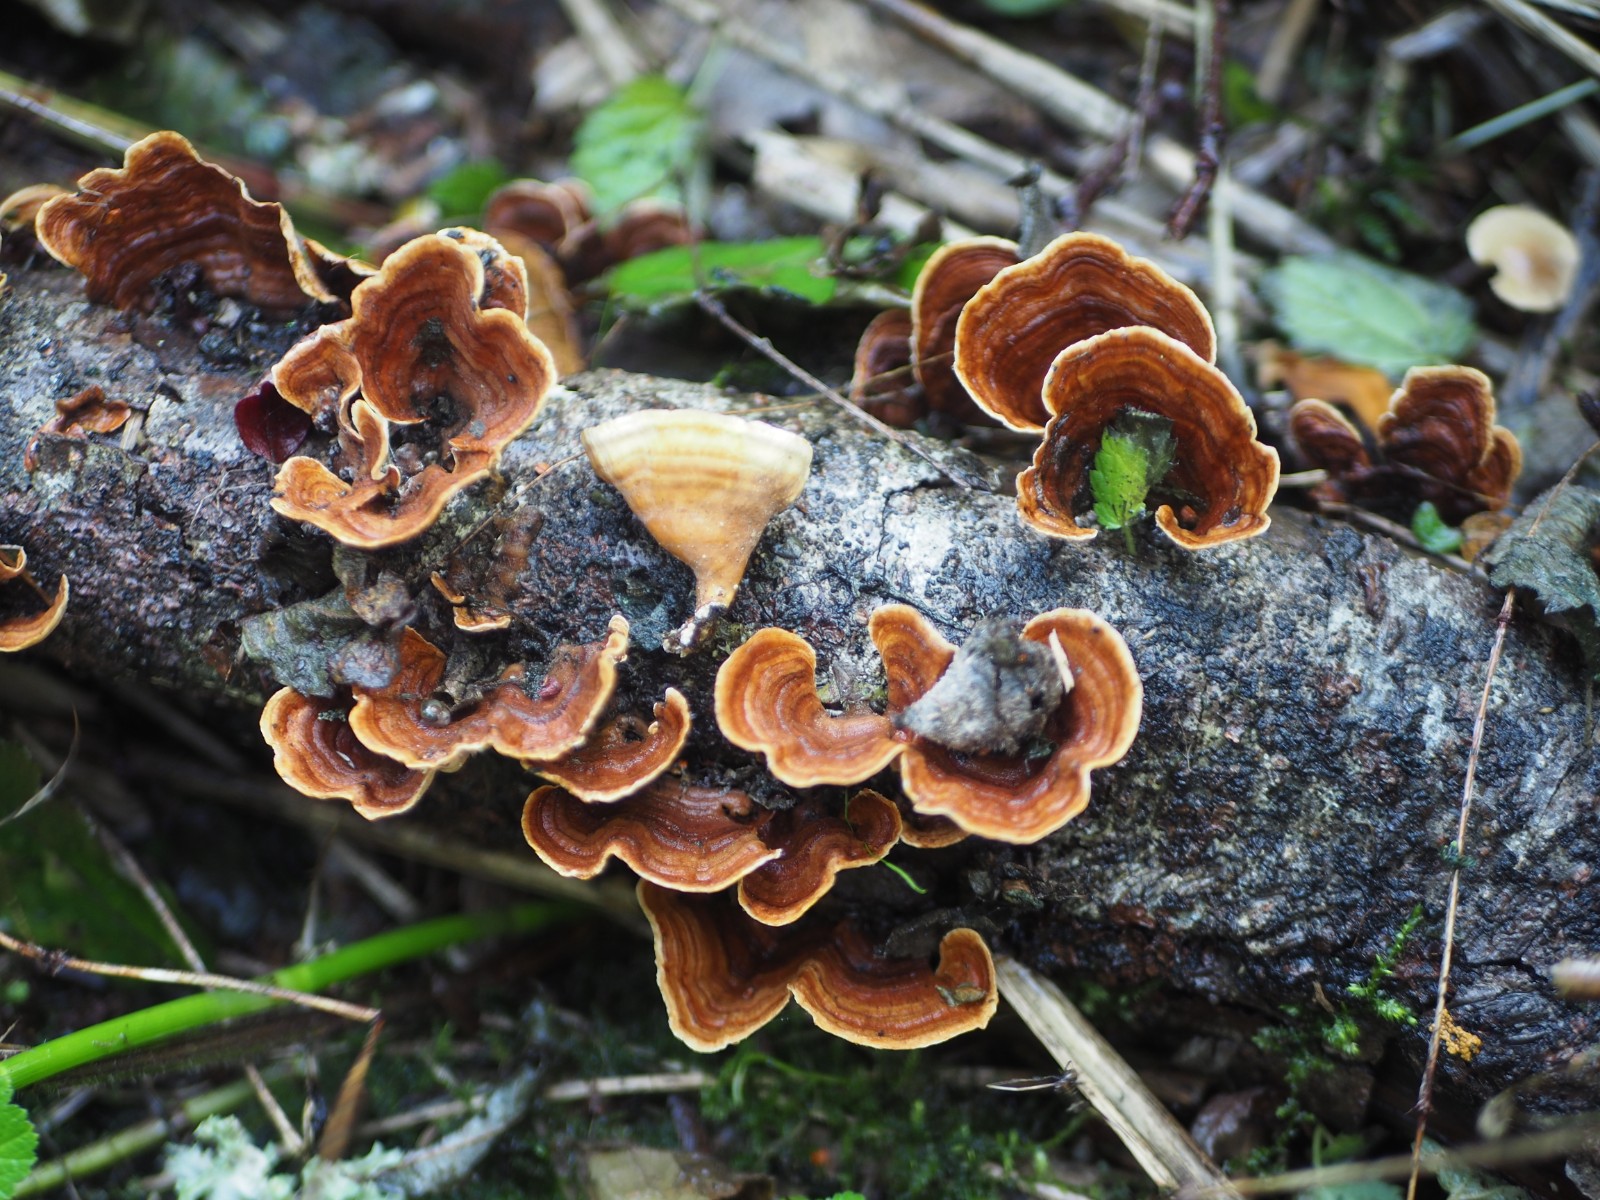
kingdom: Fungi
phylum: Basidiomycota
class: Agaricomycetes
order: Russulales
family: Stereaceae
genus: Stereum
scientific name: Stereum subtomentosum
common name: smuk lædersvamp
